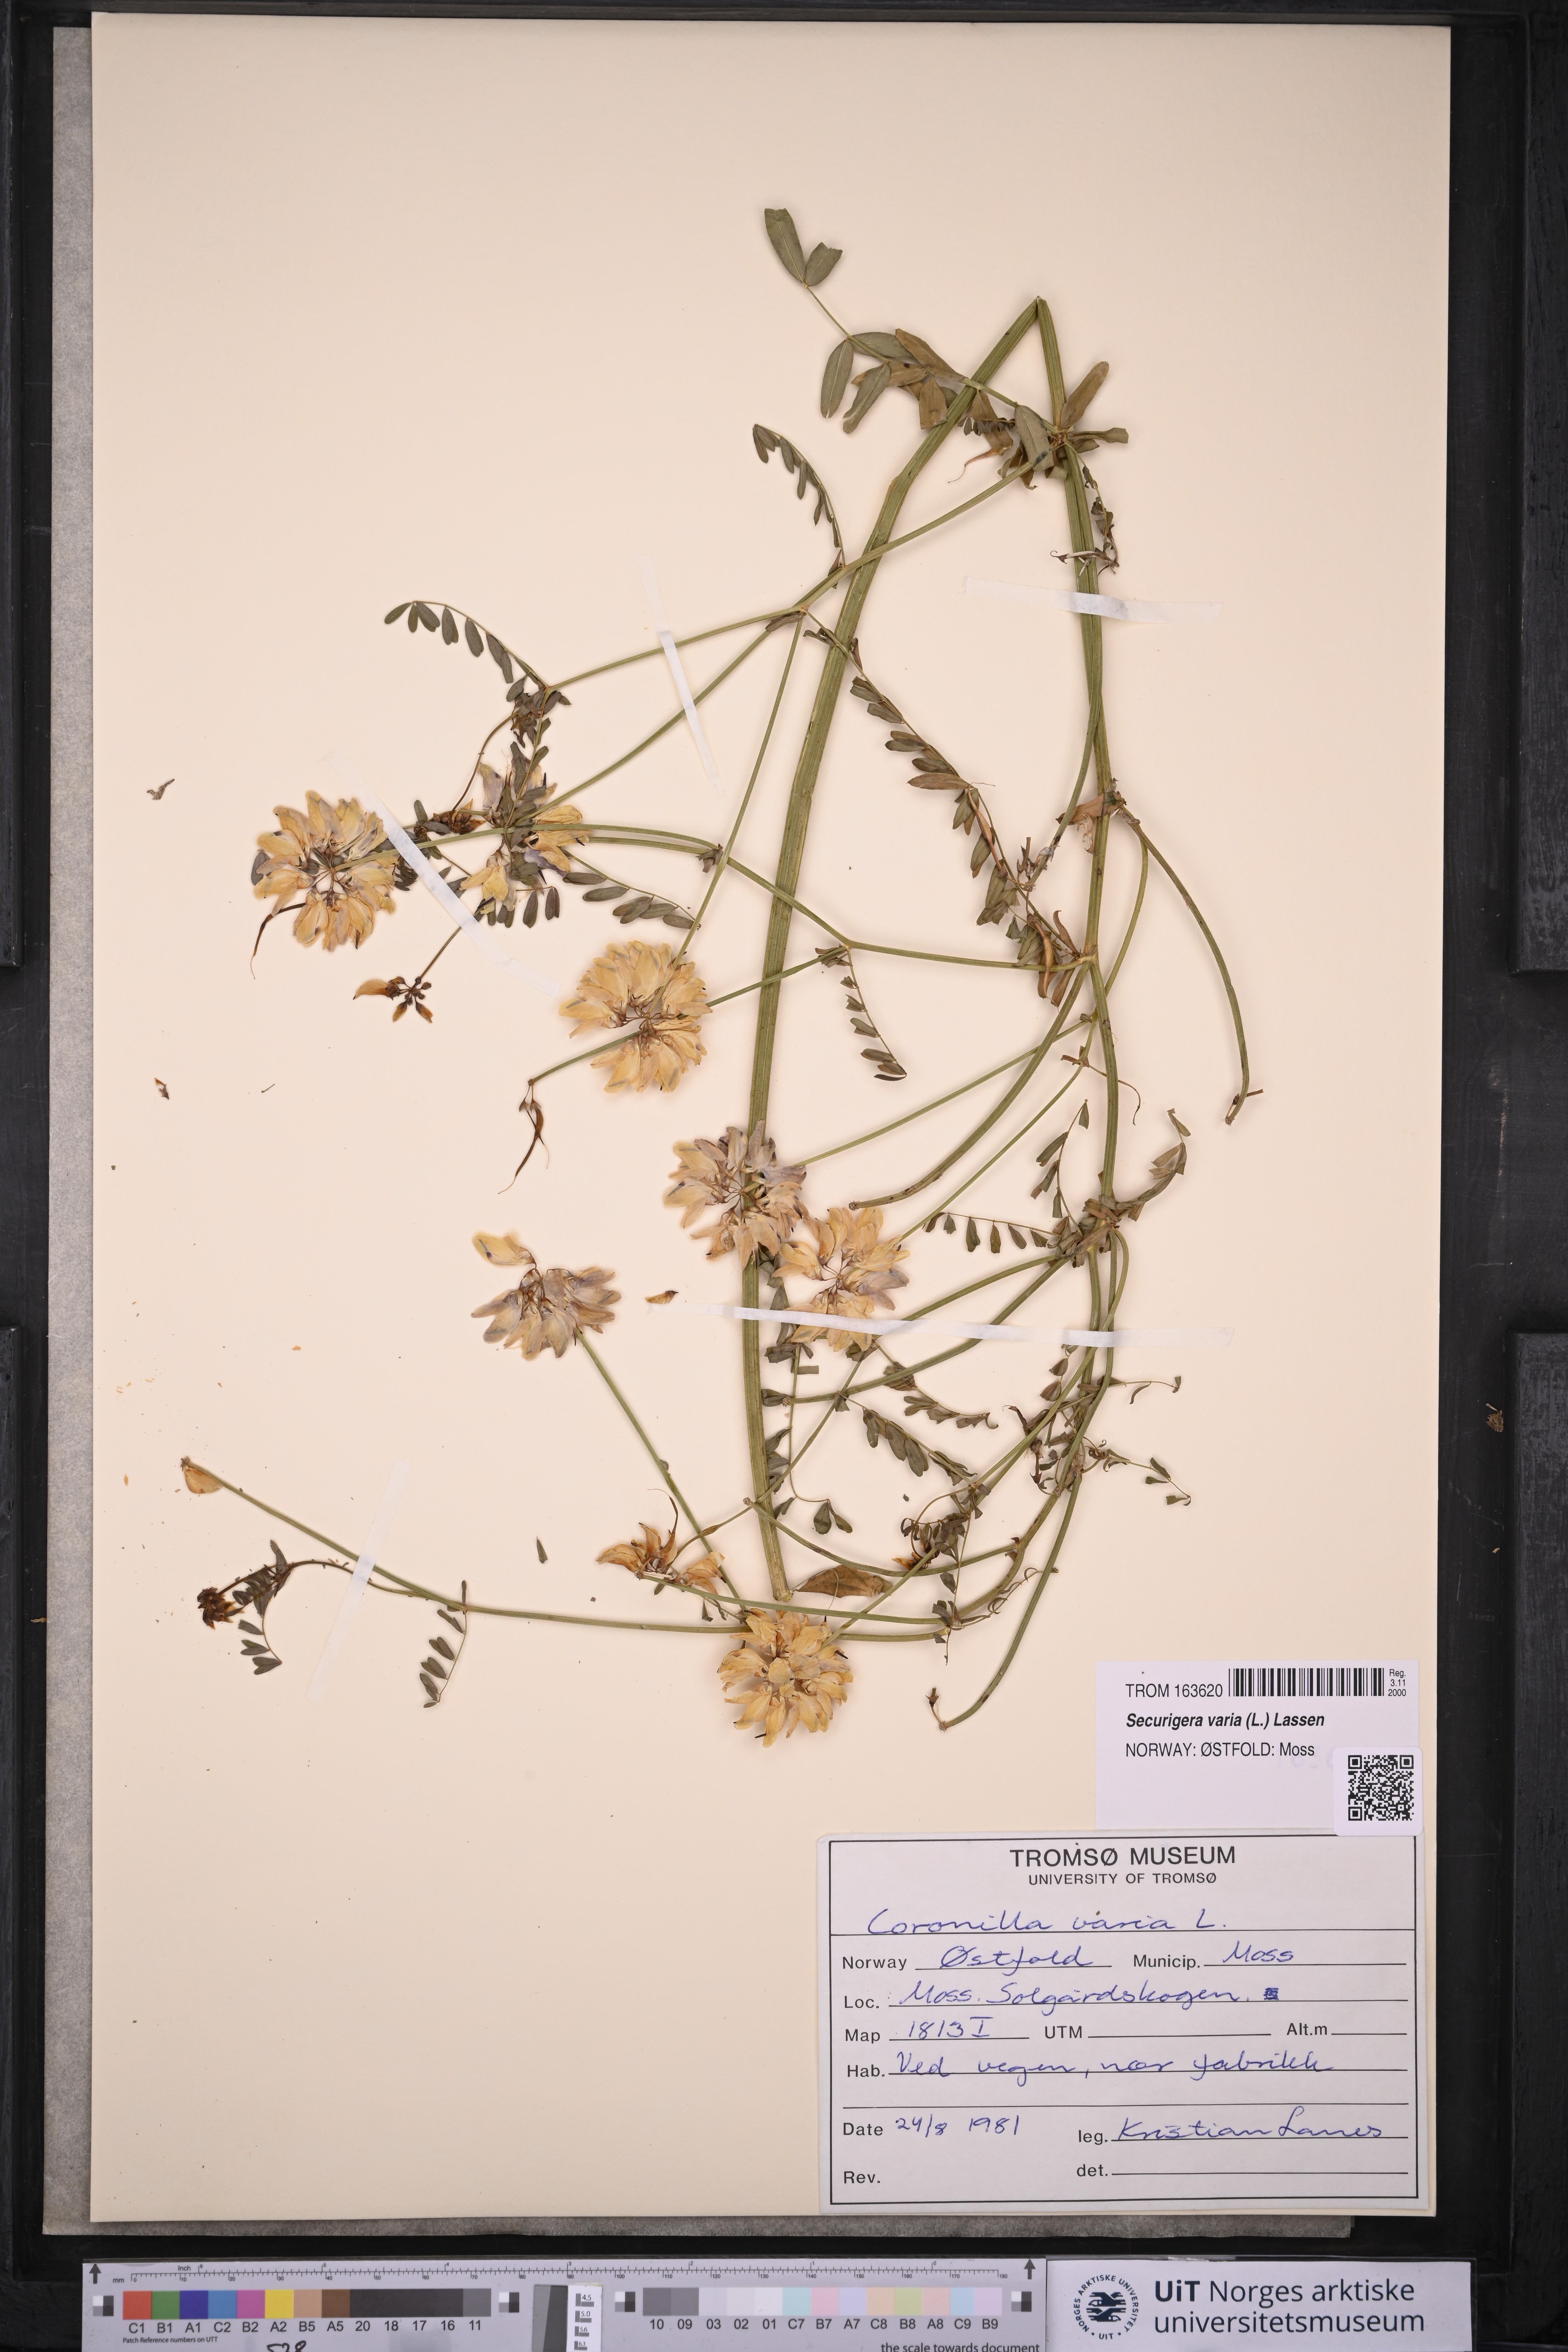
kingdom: Plantae
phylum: Tracheophyta
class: Magnoliopsida
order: Fabales
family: Fabaceae
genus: Coronilla
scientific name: Coronilla varia
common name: Crownvetch
